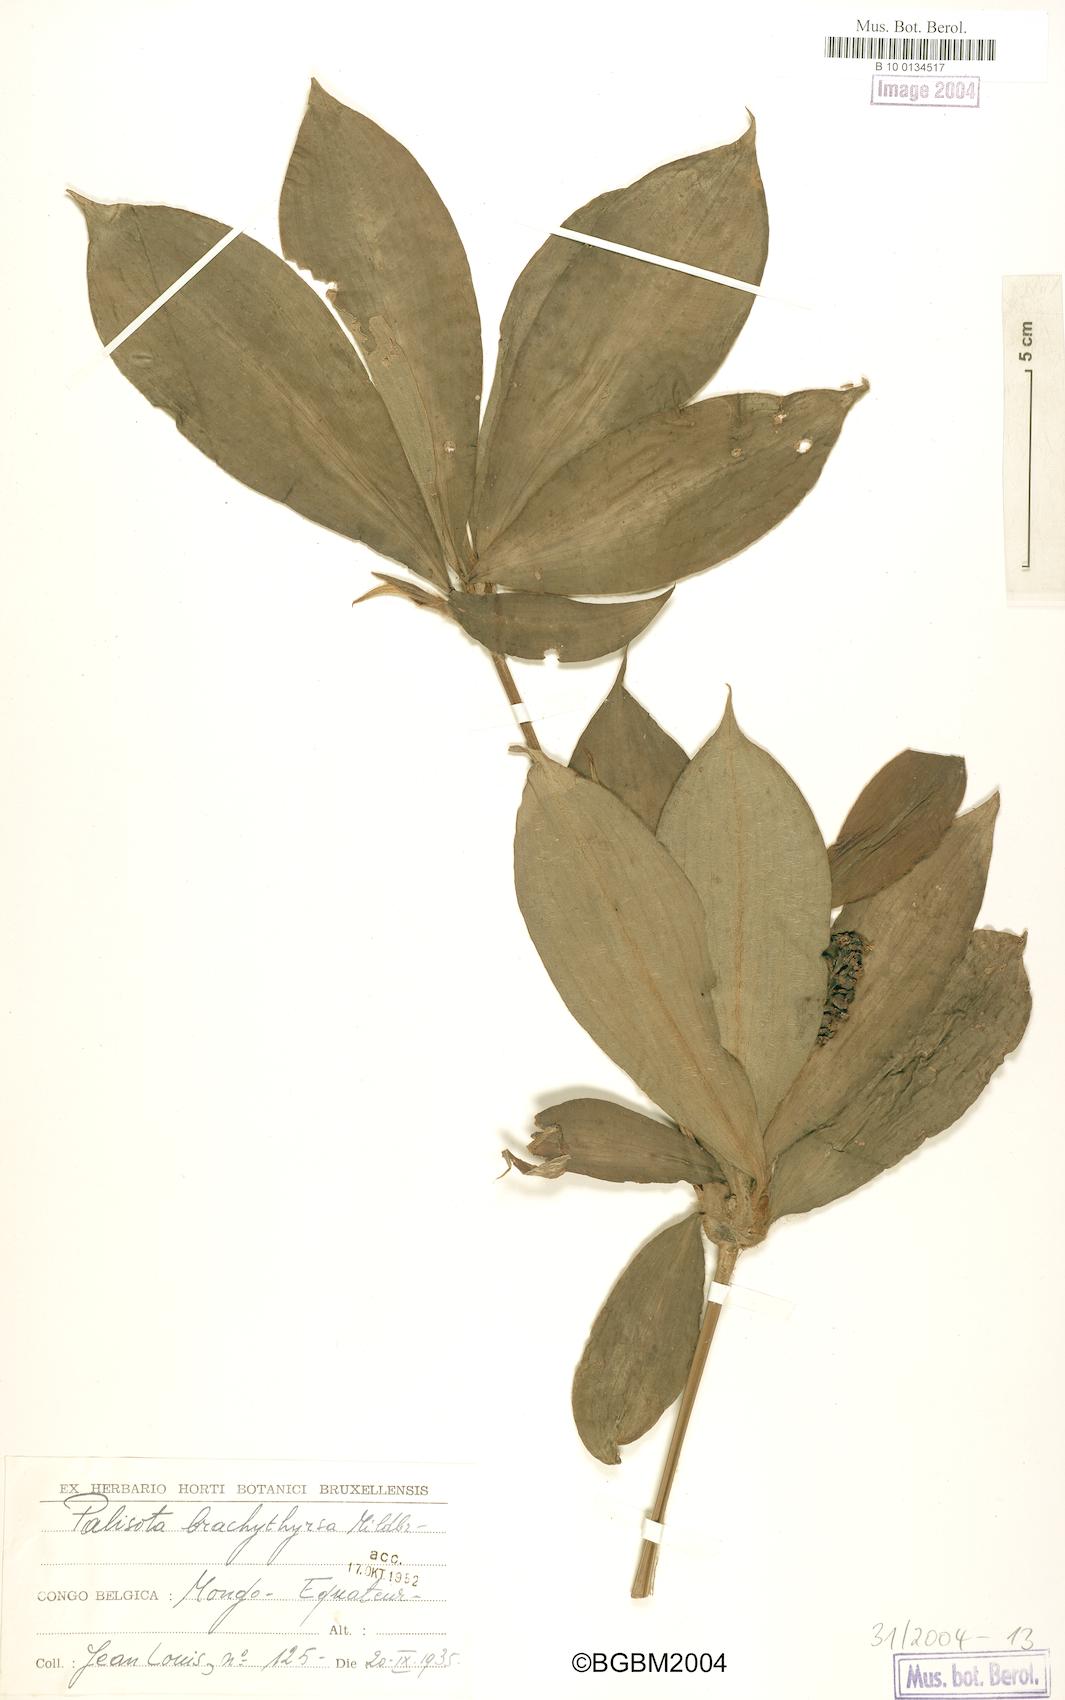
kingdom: Plantae
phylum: Tracheophyta
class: Liliopsida
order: Commelinales
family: Commelinaceae
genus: Palisota
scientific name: Palisota brachythyrsa
